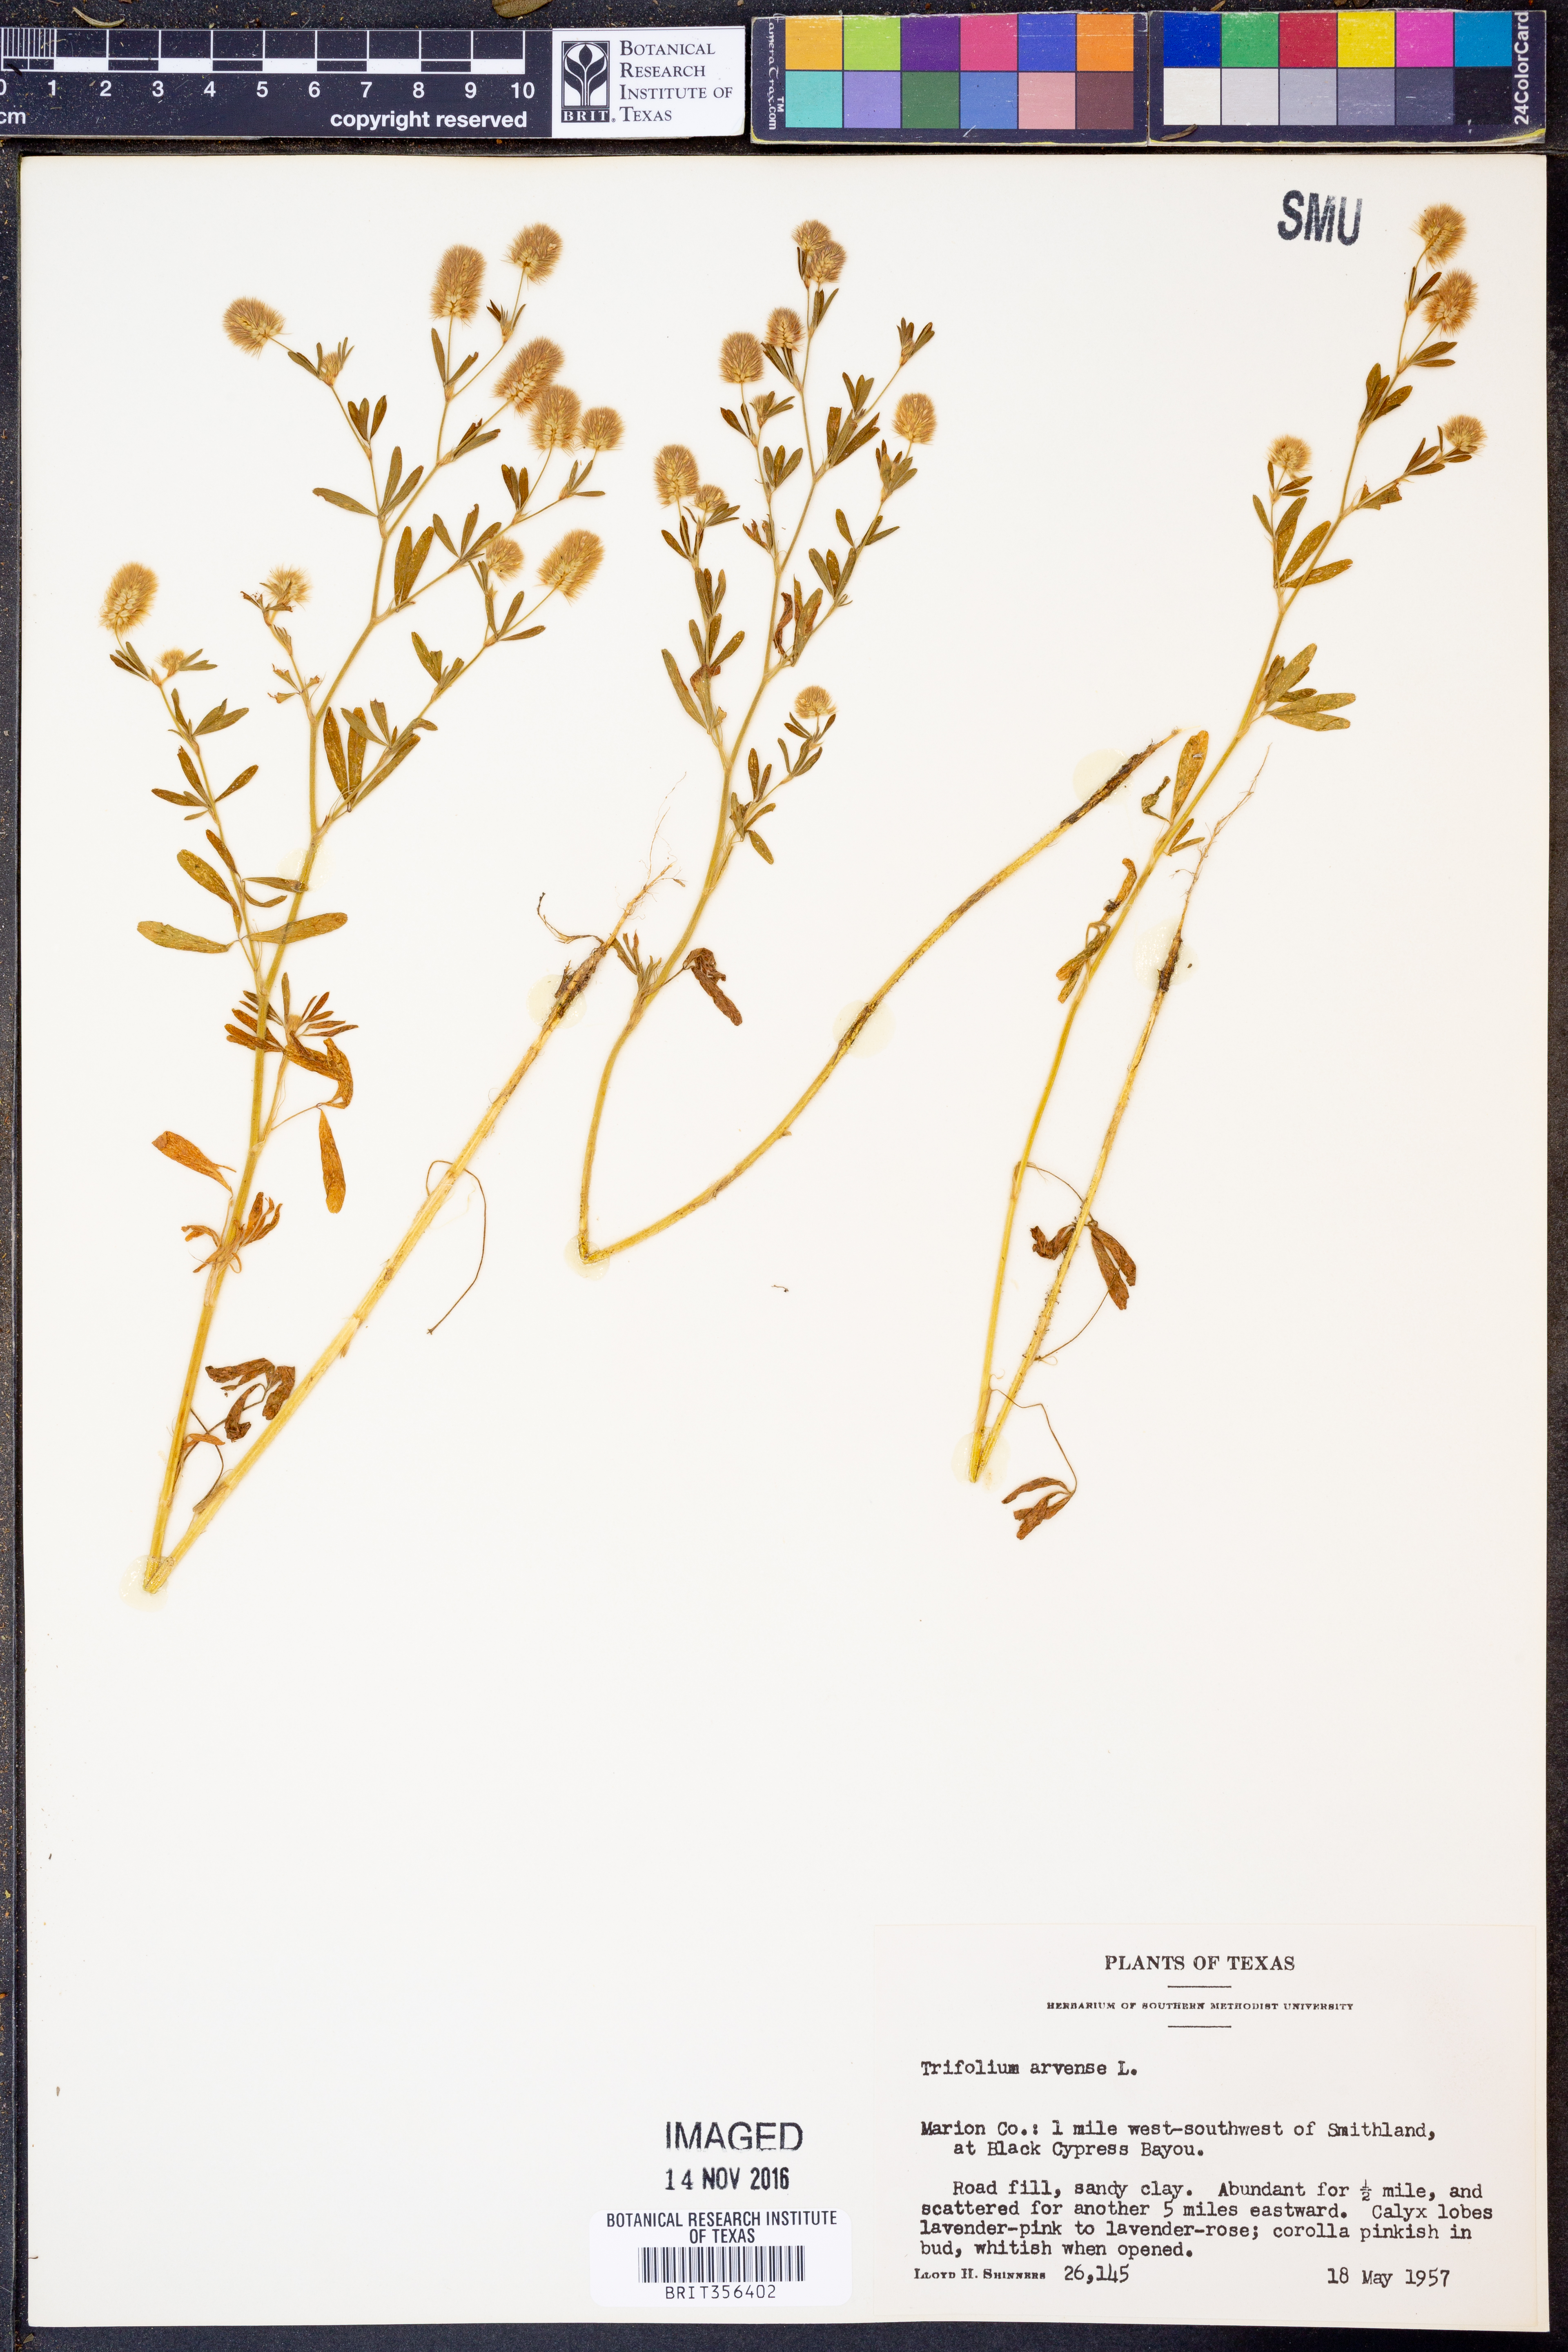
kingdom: Plantae
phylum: Tracheophyta
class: Magnoliopsida
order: Fabales
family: Fabaceae
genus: Trifolium
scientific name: Trifolium arvense
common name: Hare's-foot clover
